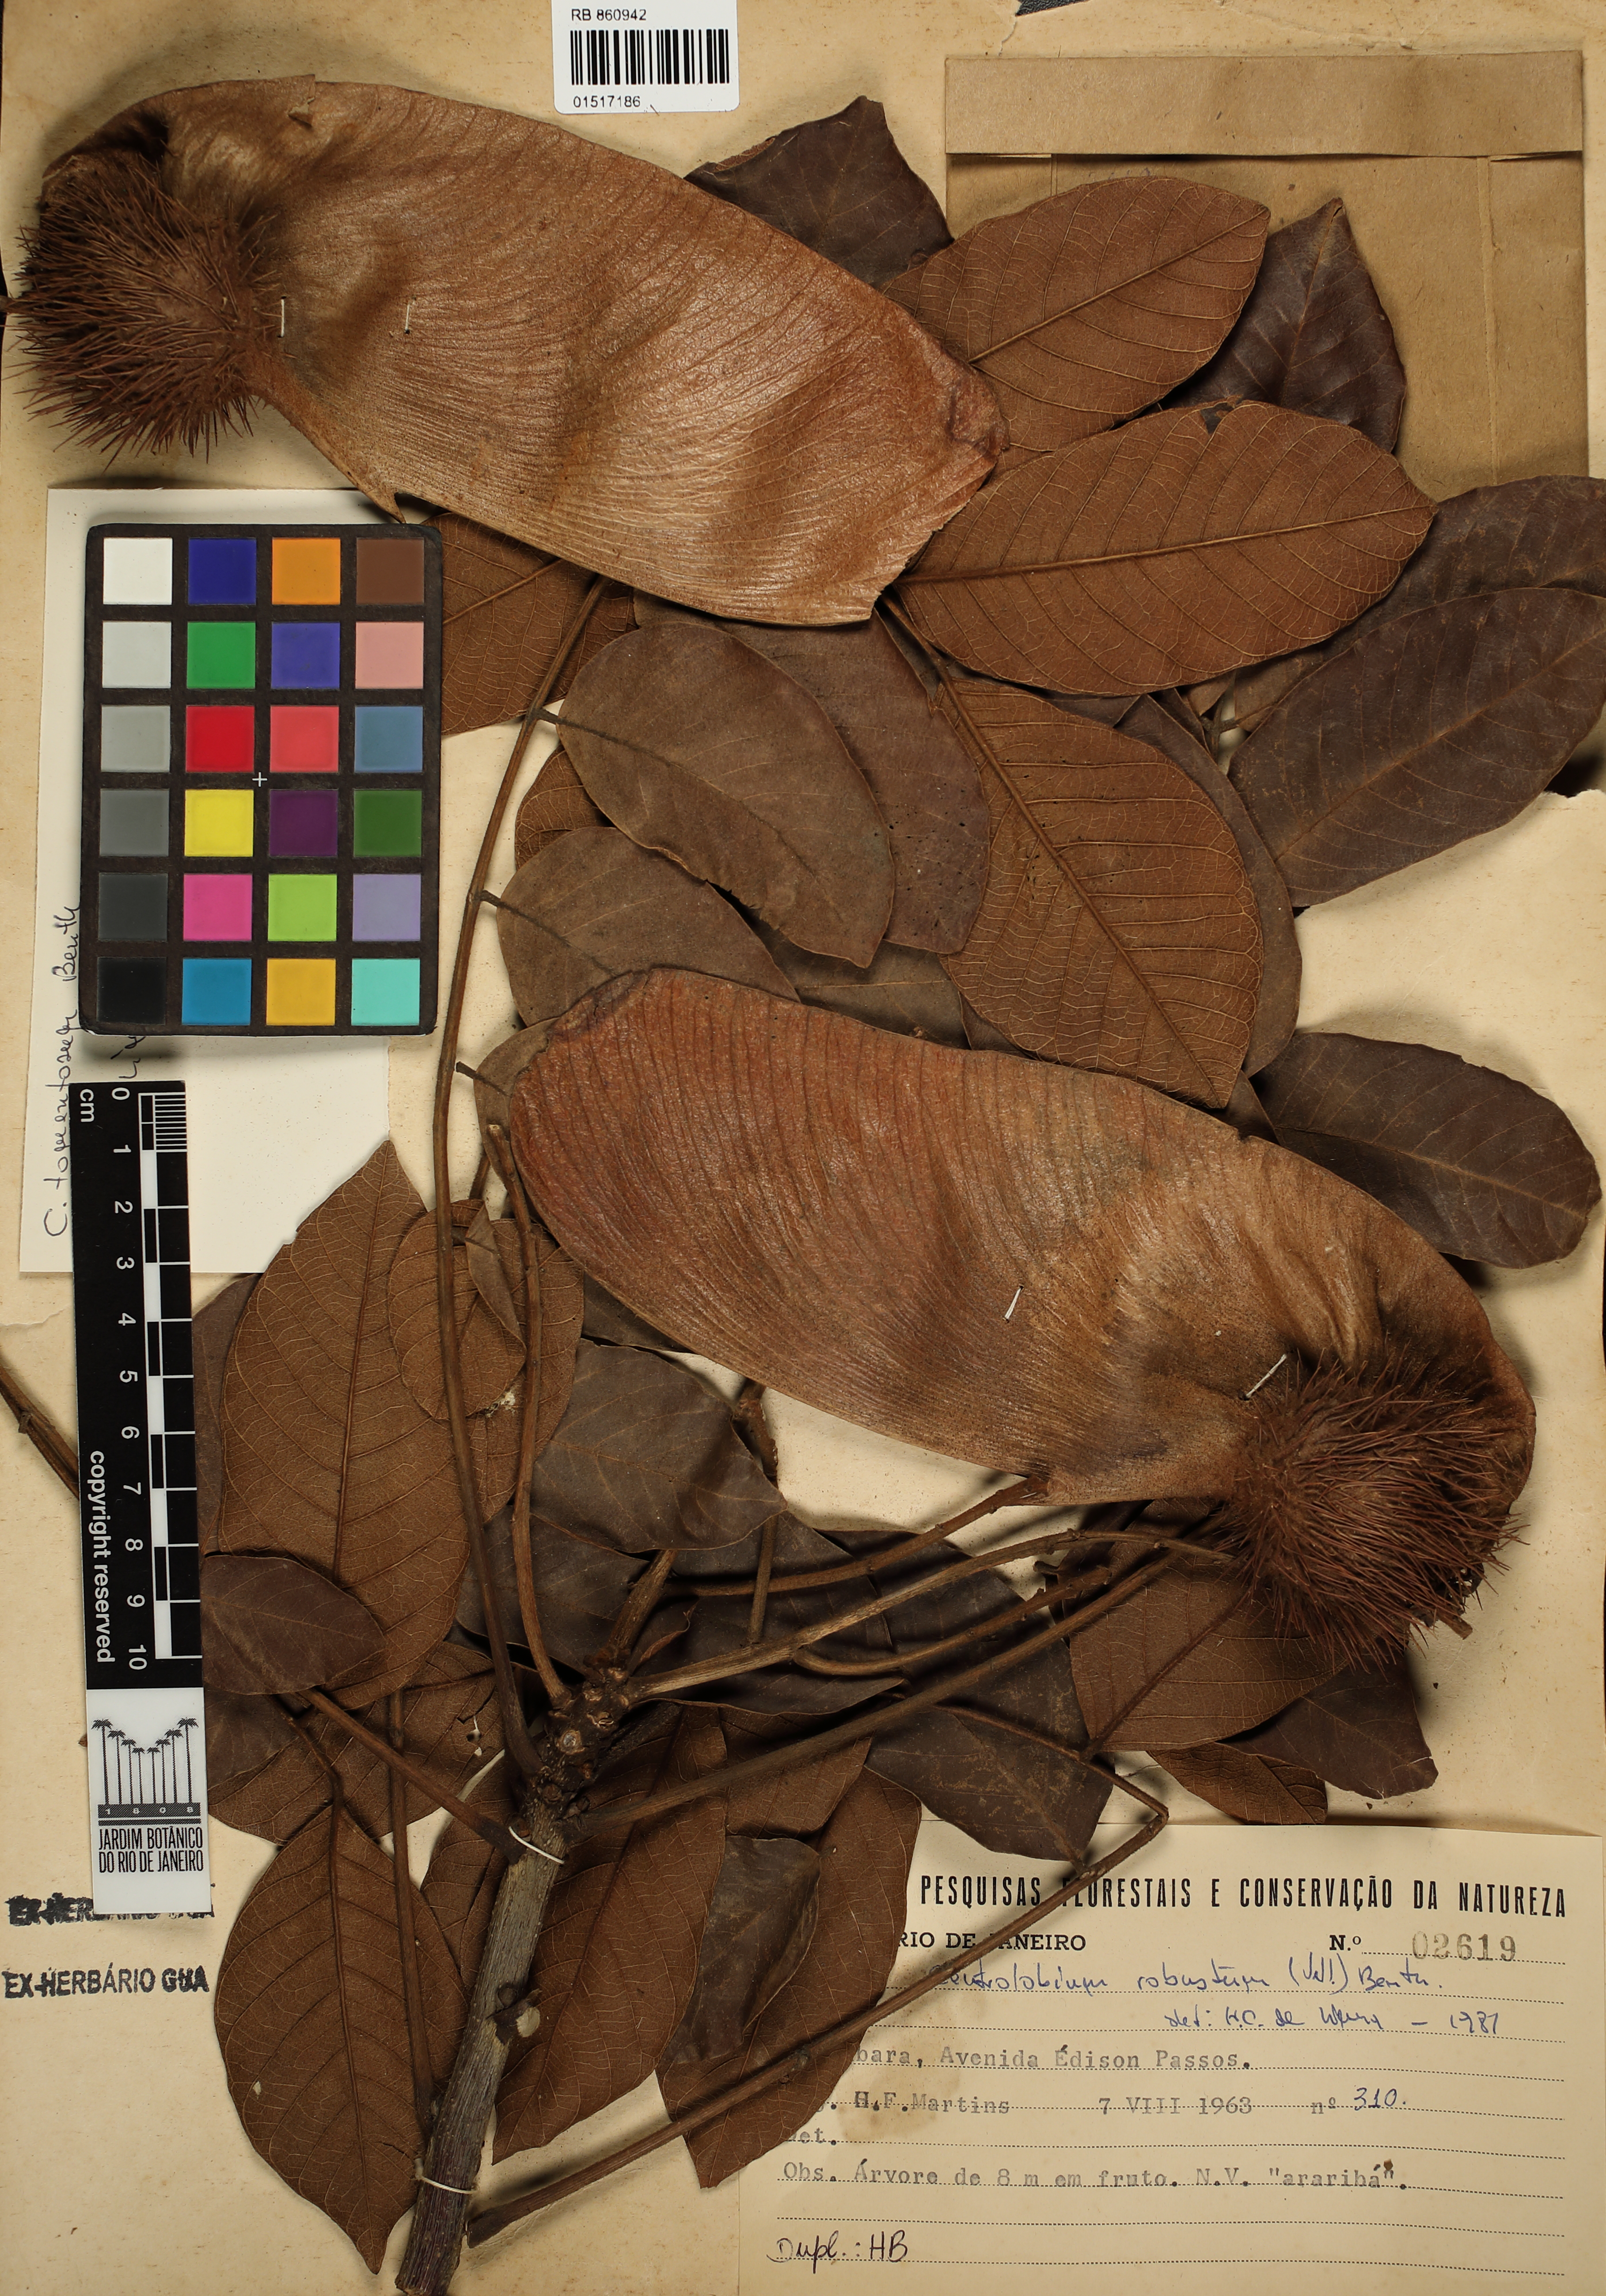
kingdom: Plantae
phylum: Tracheophyta
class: Magnoliopsida
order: Fabales
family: Fabaceae
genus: Centrolobium
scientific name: Centrolobium tomentosum
